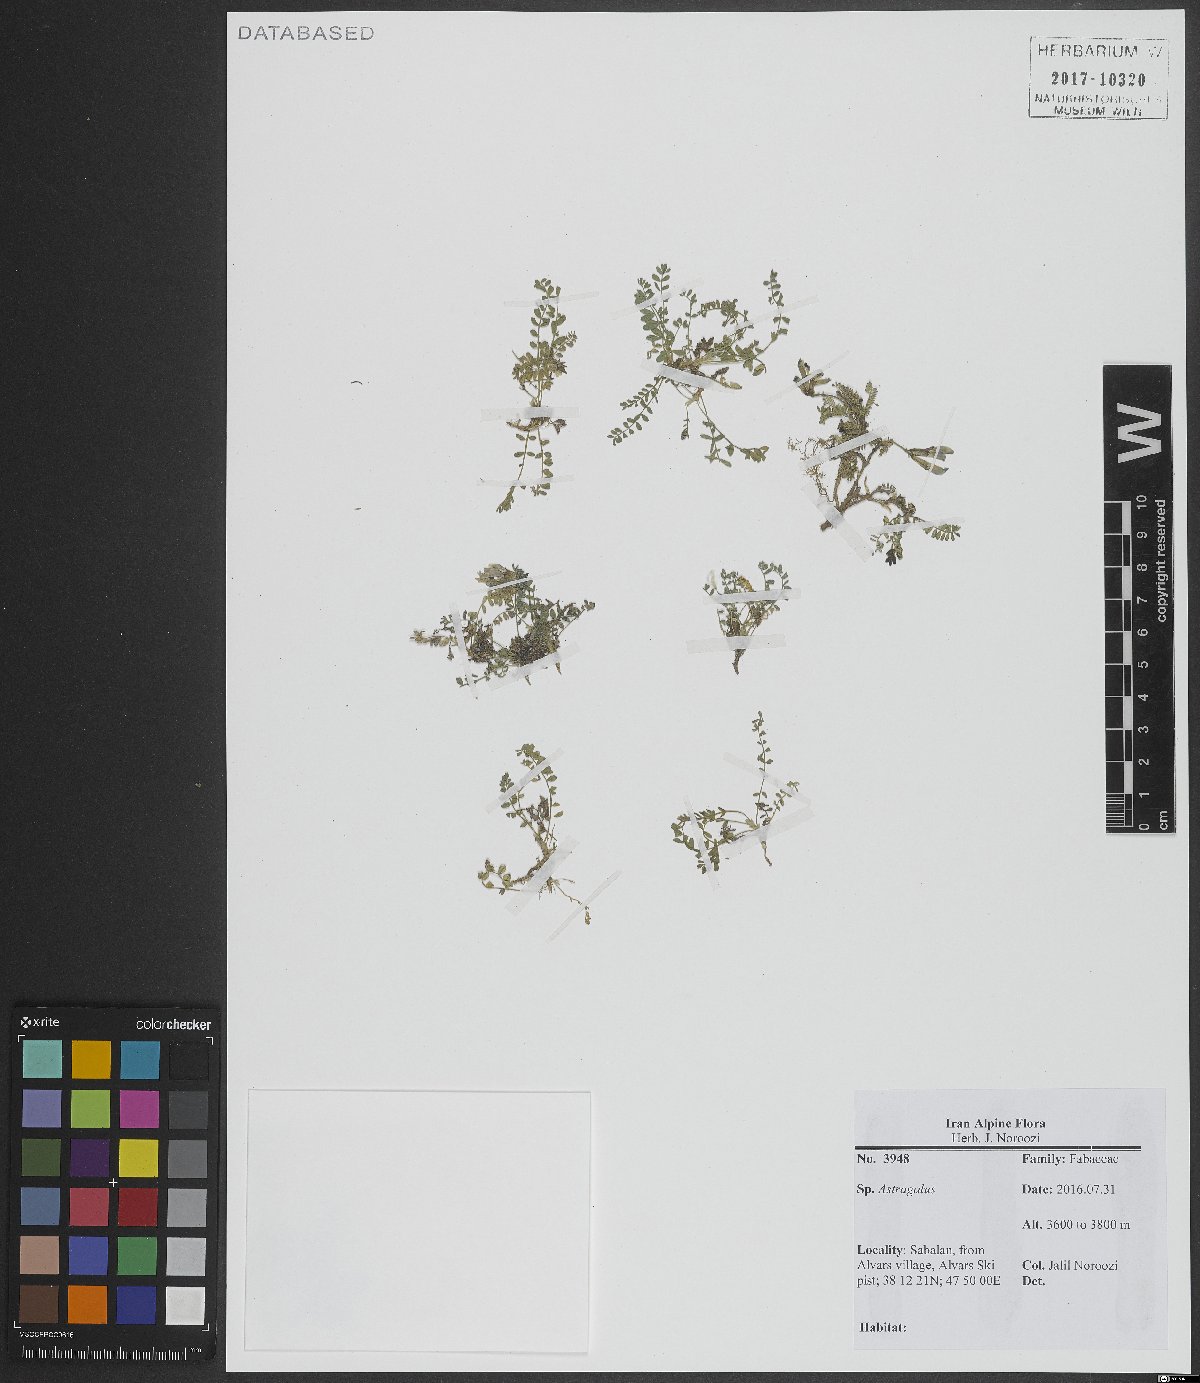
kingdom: Plantae
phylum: Tracheophyta
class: Magnoliopsida
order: Fabales
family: Fabaceae
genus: Astragalus
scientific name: Astragalus
